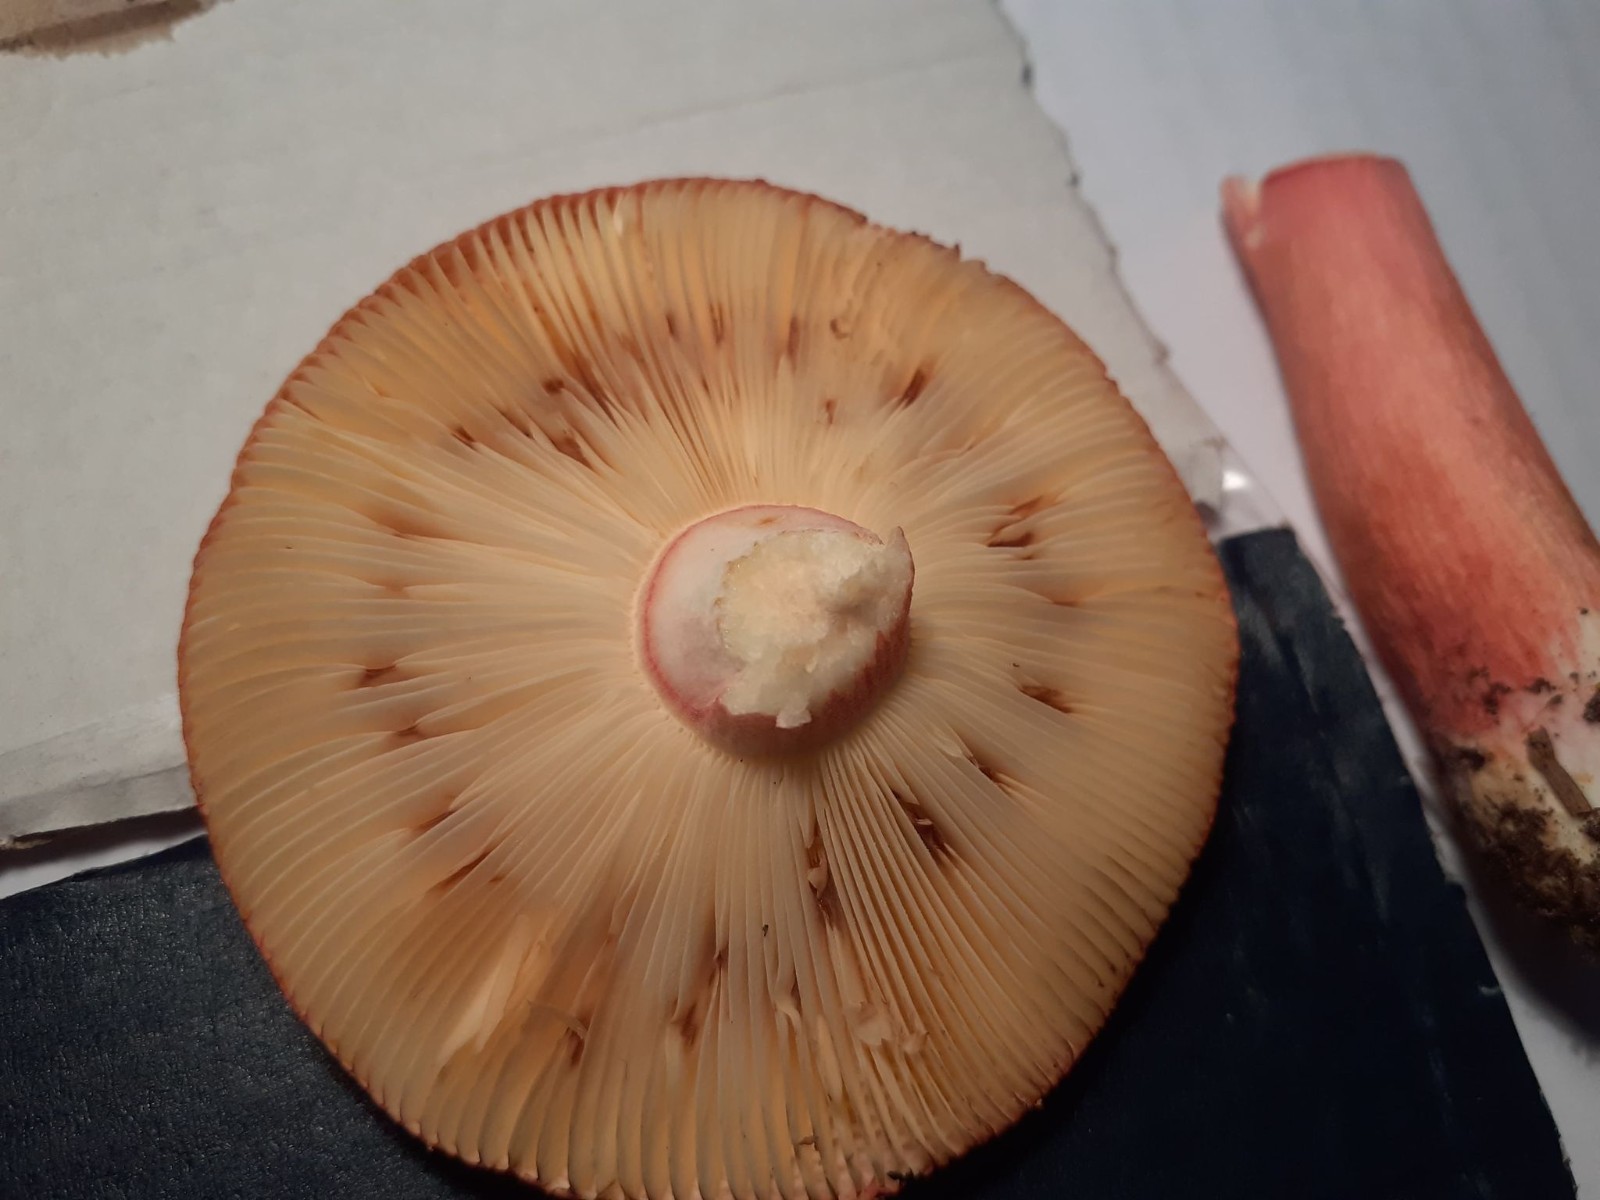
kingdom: Fungi
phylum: Basidiomycota
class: Agaricomycetes
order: Russulales
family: Russulaceae
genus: Russula
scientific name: Russula xerampelina
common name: hummer-skørhat
